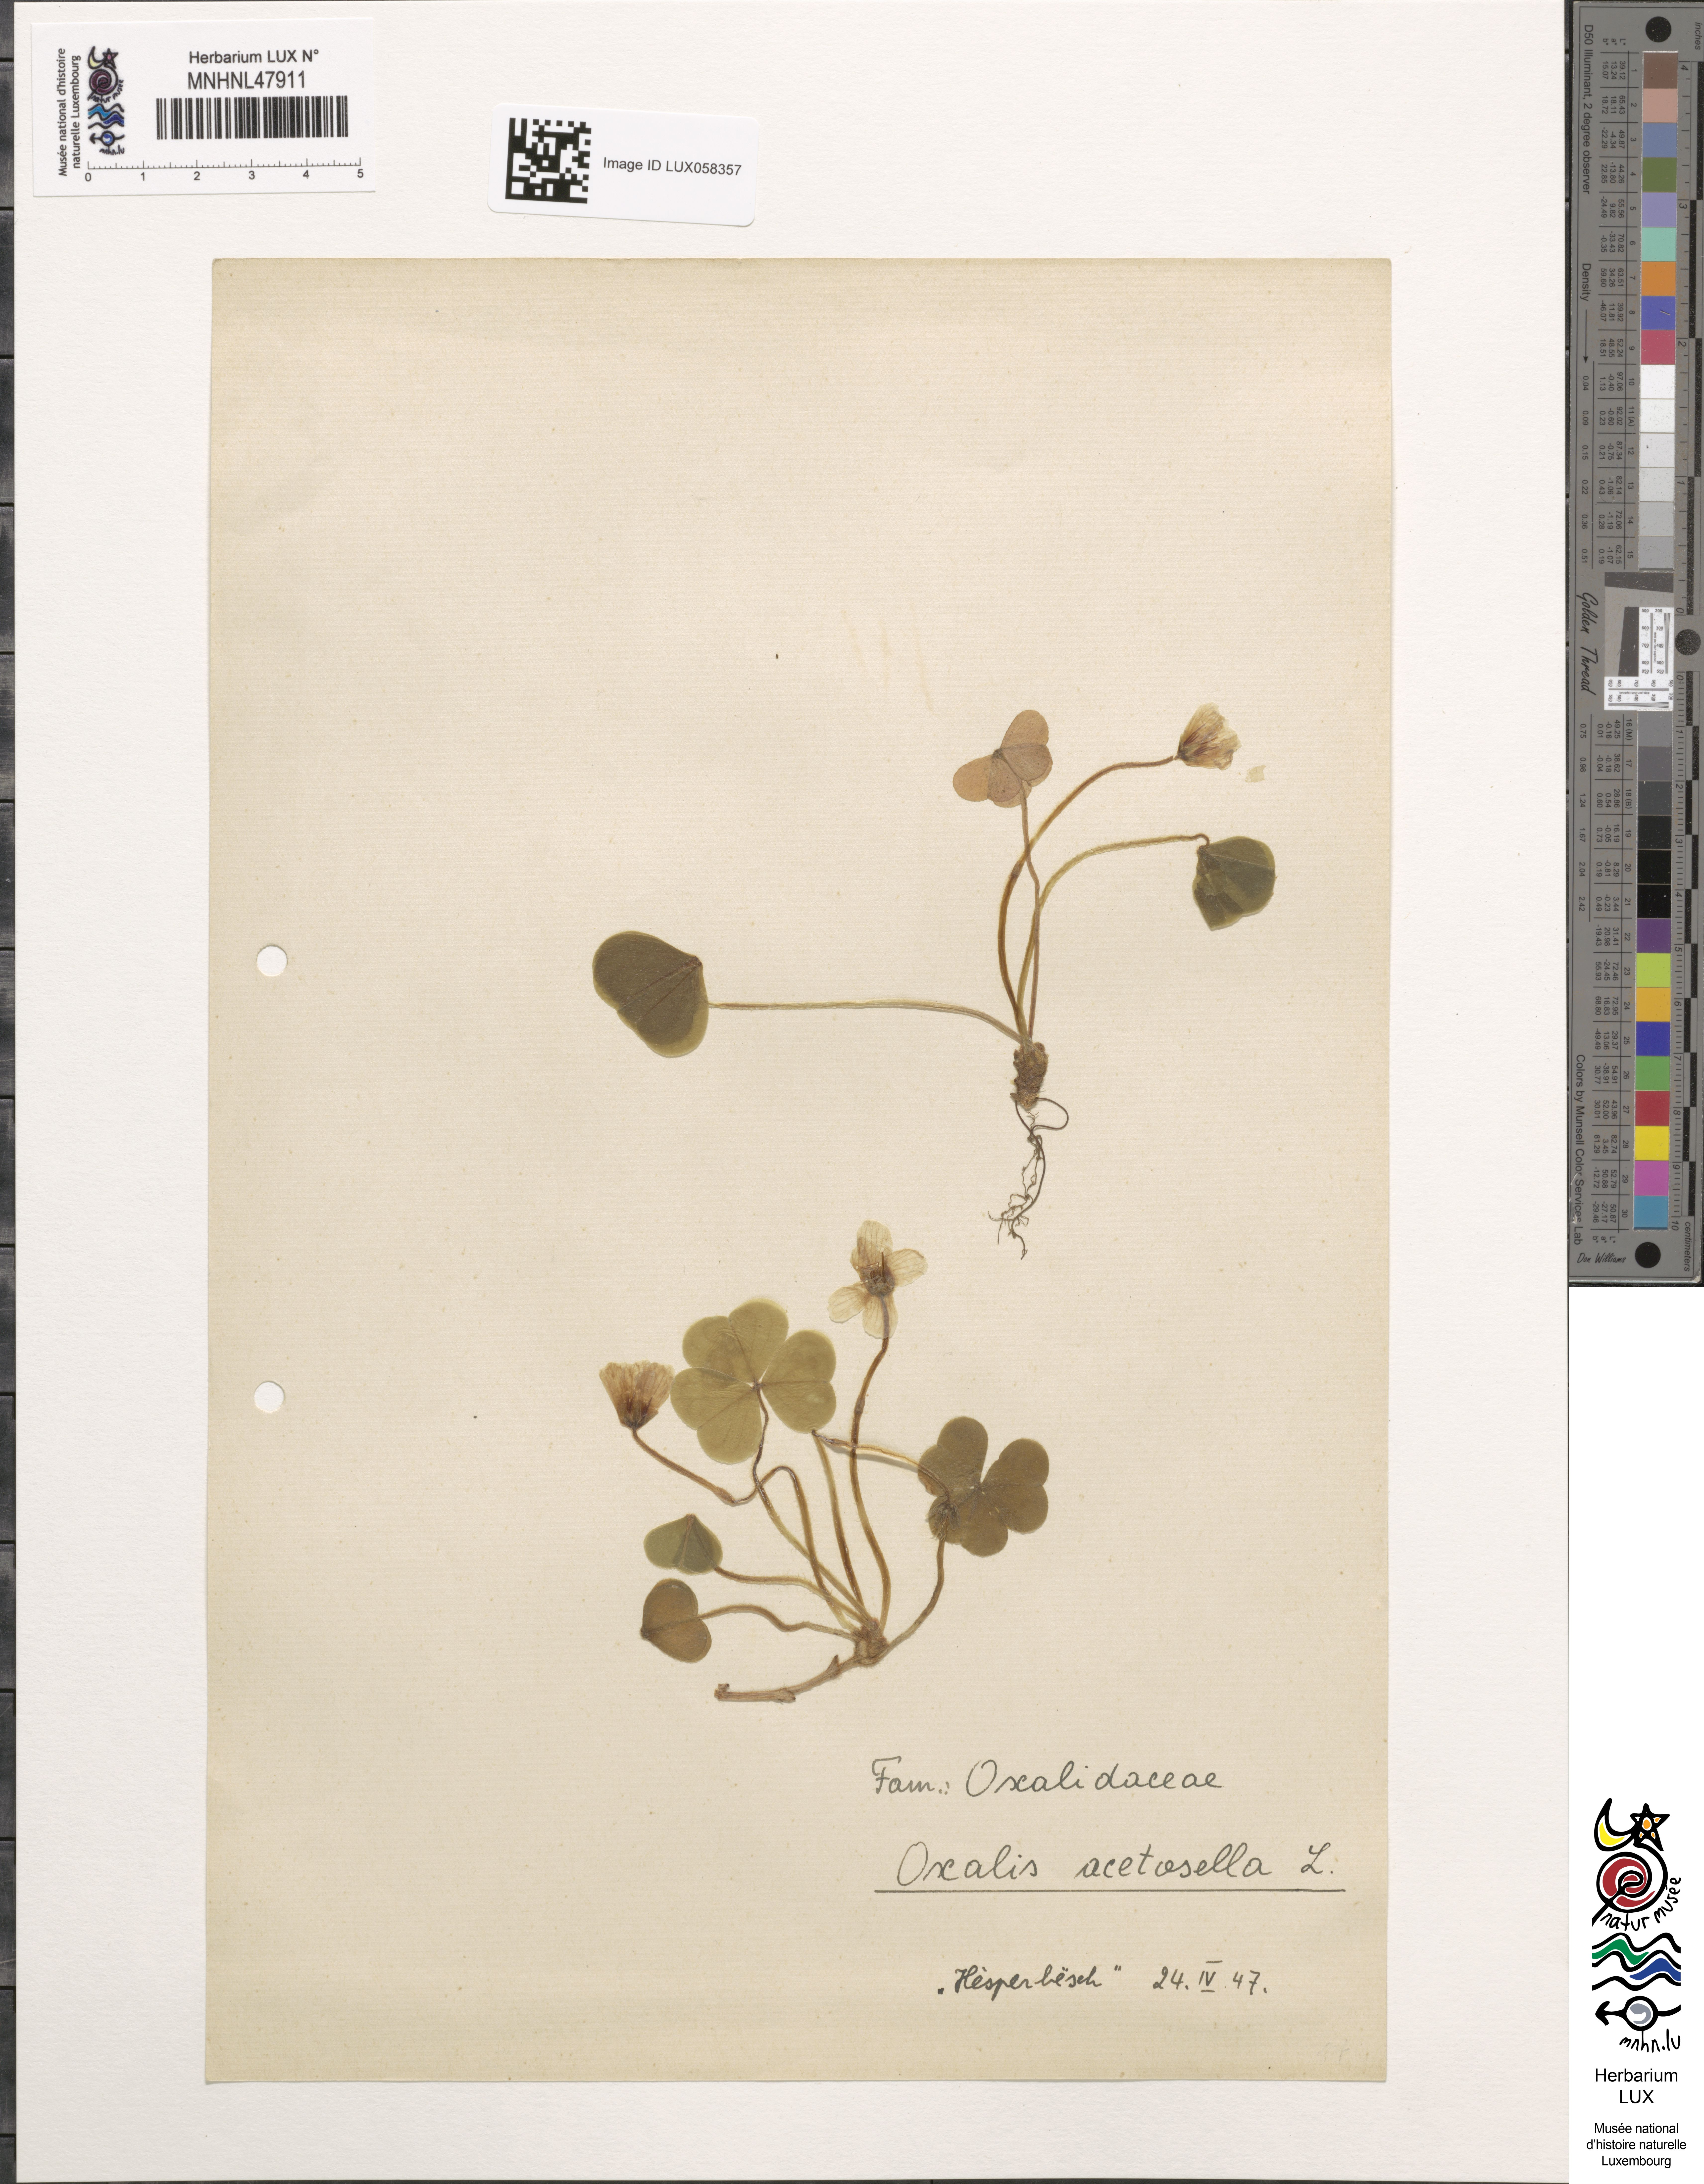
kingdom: Plantae
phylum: Tracheophyta
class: Magnoliopsida
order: Oxalidales
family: Oxalidaceae
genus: Oxalis
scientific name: Oxalis acetosella
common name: Wood-sorrel
